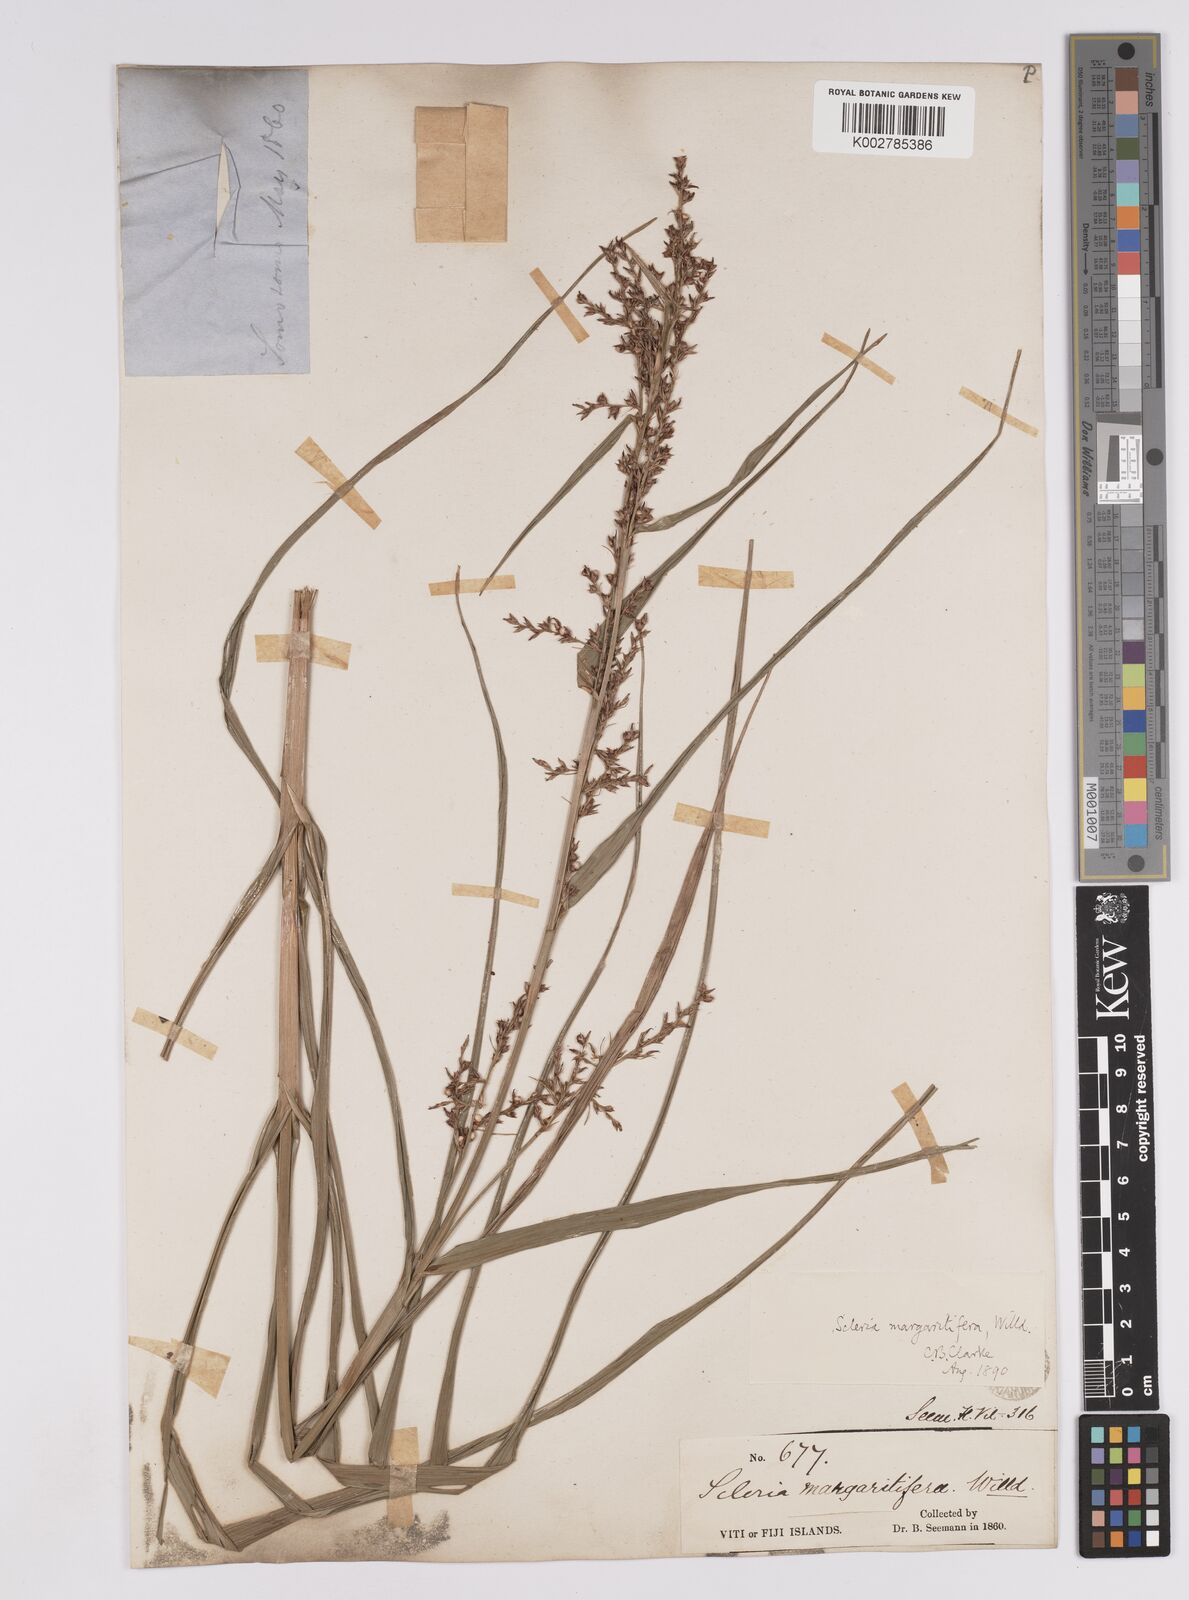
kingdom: Plantae
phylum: Tracheophyta
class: Liliopsida
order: Poales
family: Cyperaceae
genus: Scleria
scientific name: Scleria polycarpa
